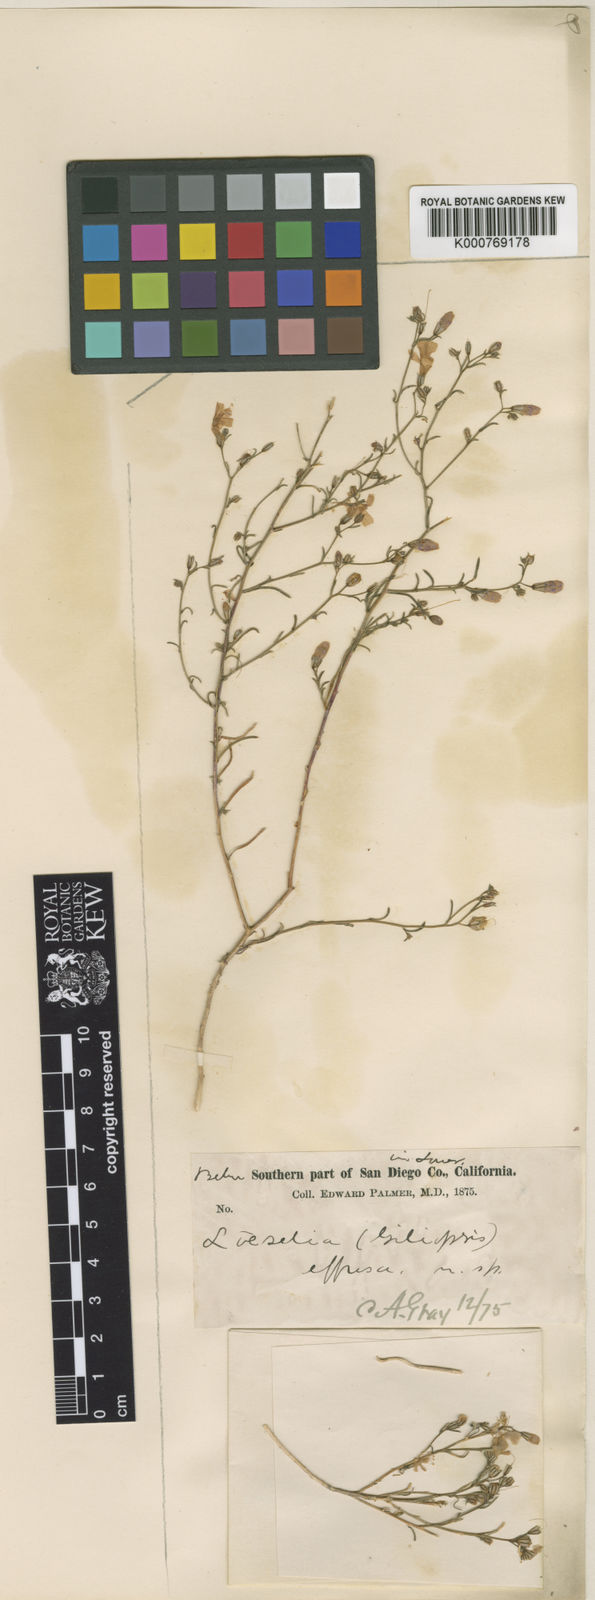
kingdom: Plantae
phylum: Tracheophyta
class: Magnoliopsida
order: Ericales
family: Polemoniaceae
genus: Ipomopsis
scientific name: Ipomopsis effusa
